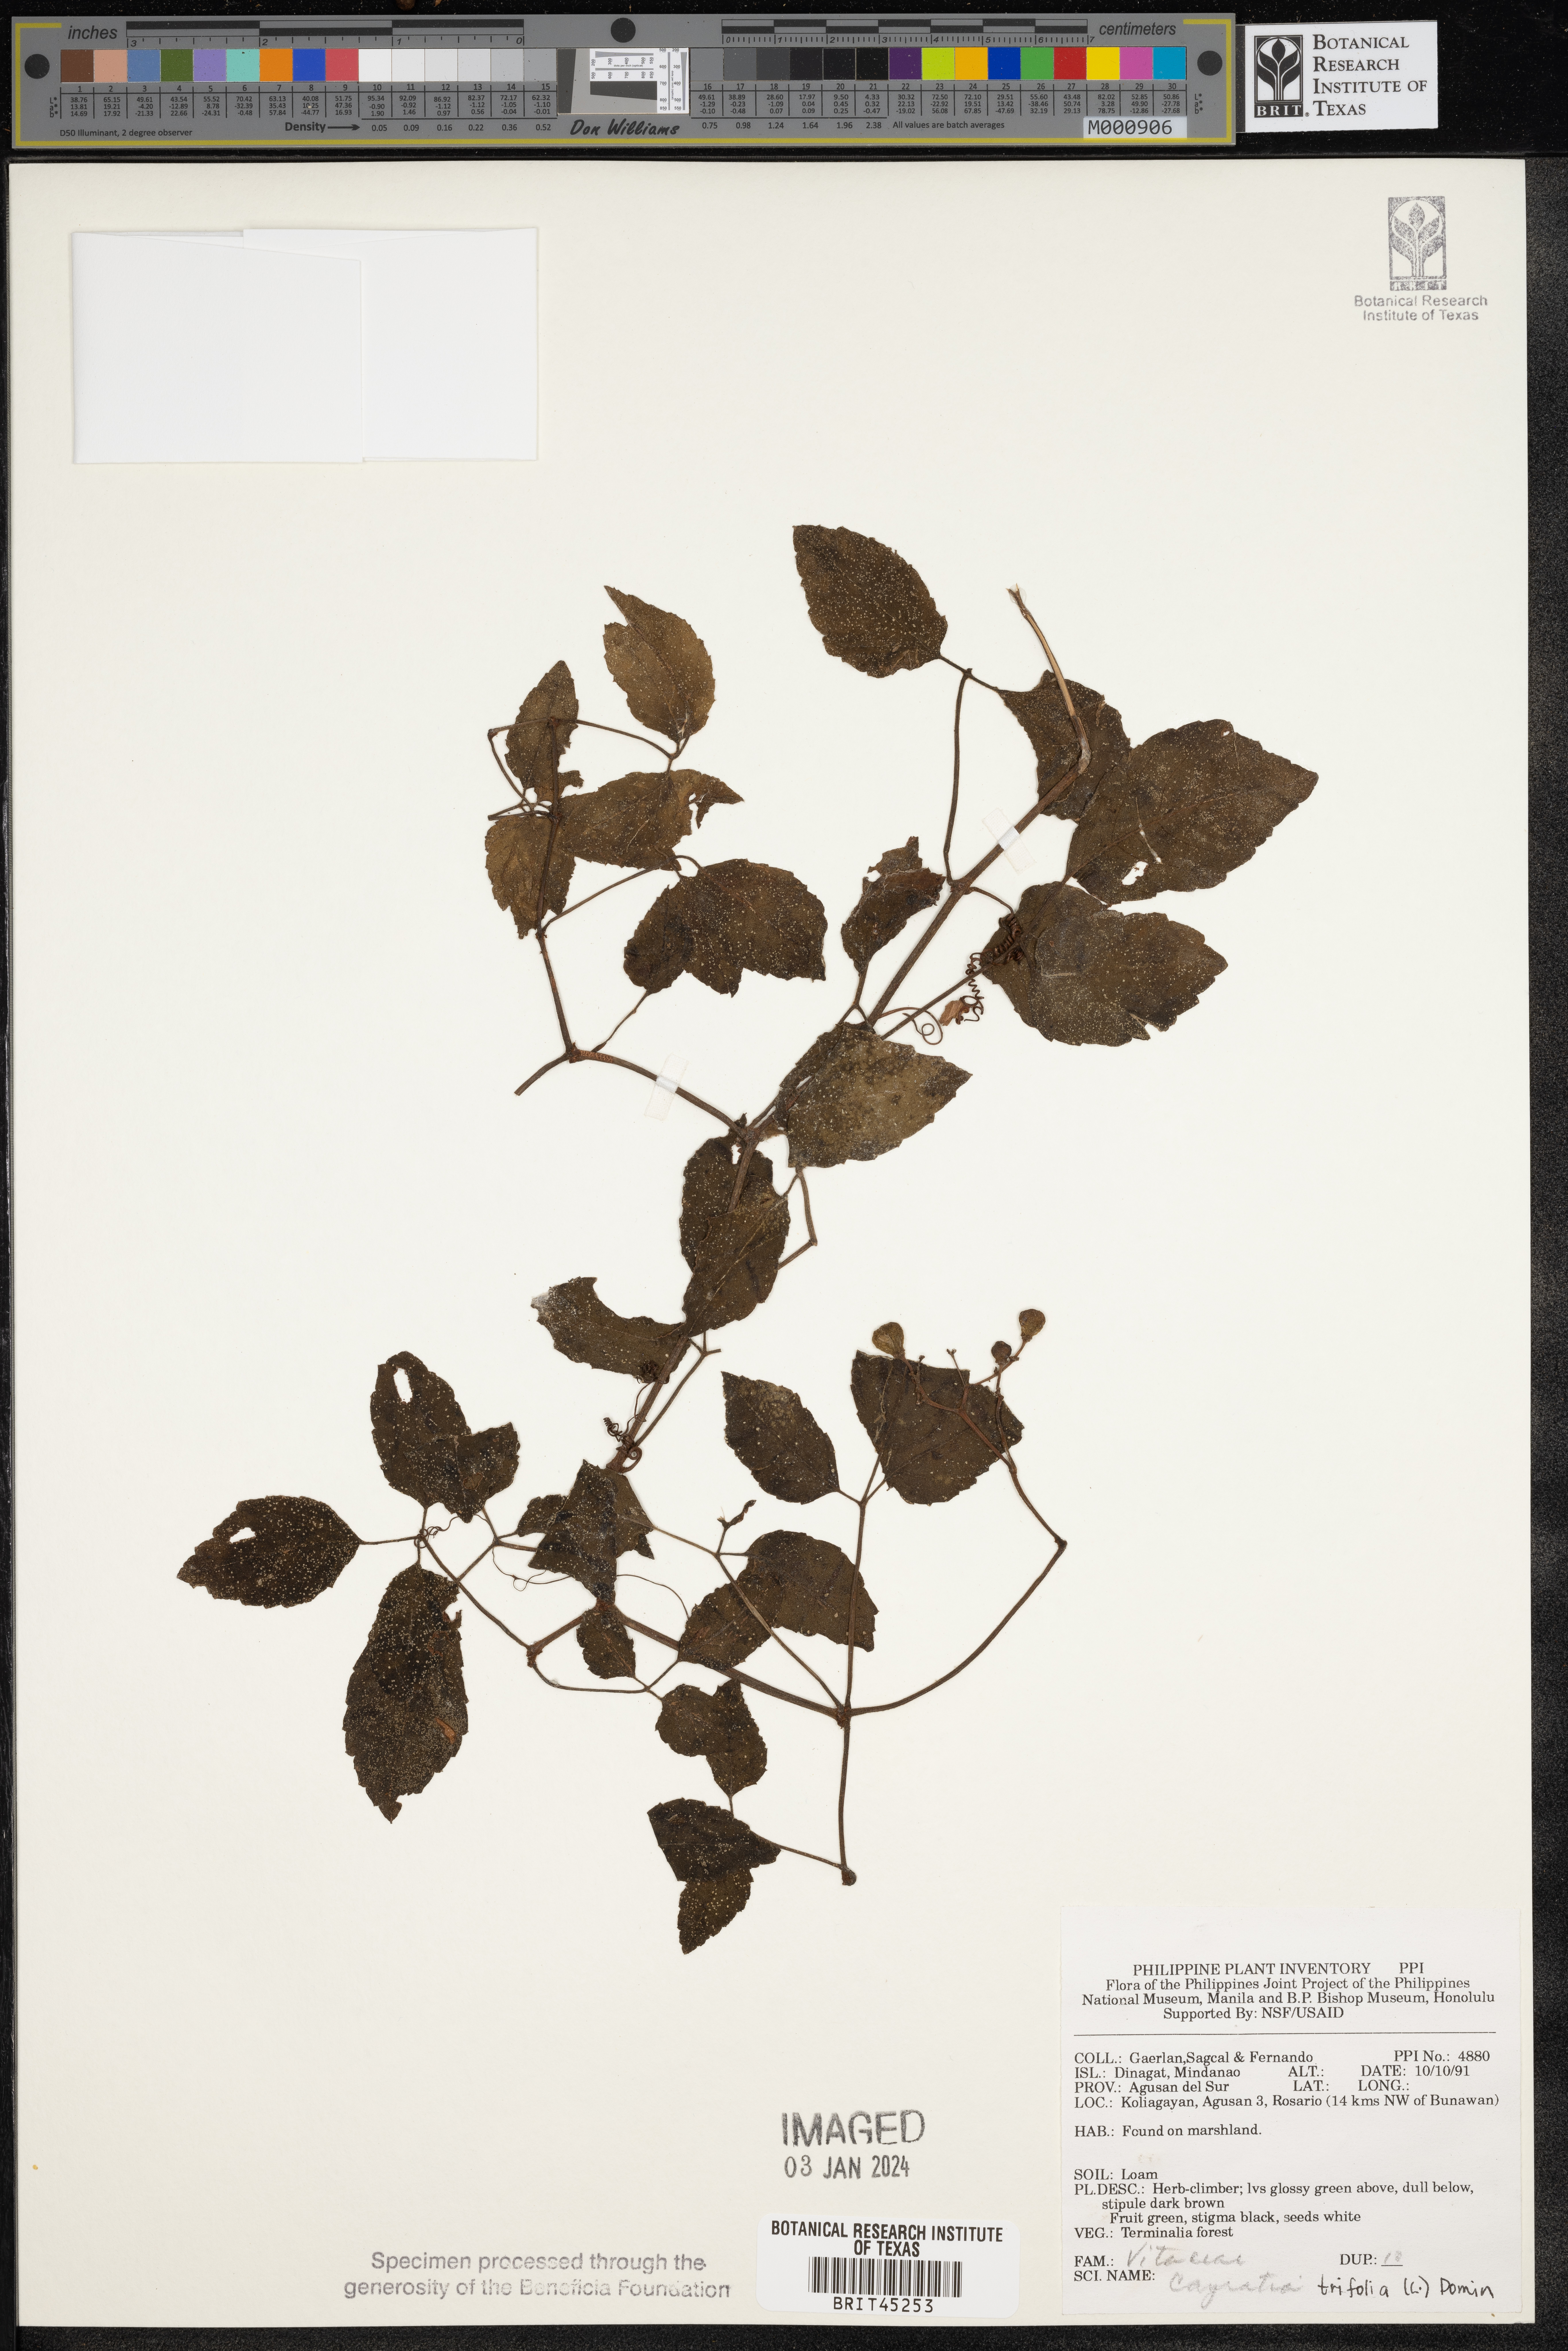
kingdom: Plantae
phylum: Tracheophyta
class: Magnoliopsida
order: Vitales
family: Vitaceae
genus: Causonis
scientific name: Causonis trifolia
